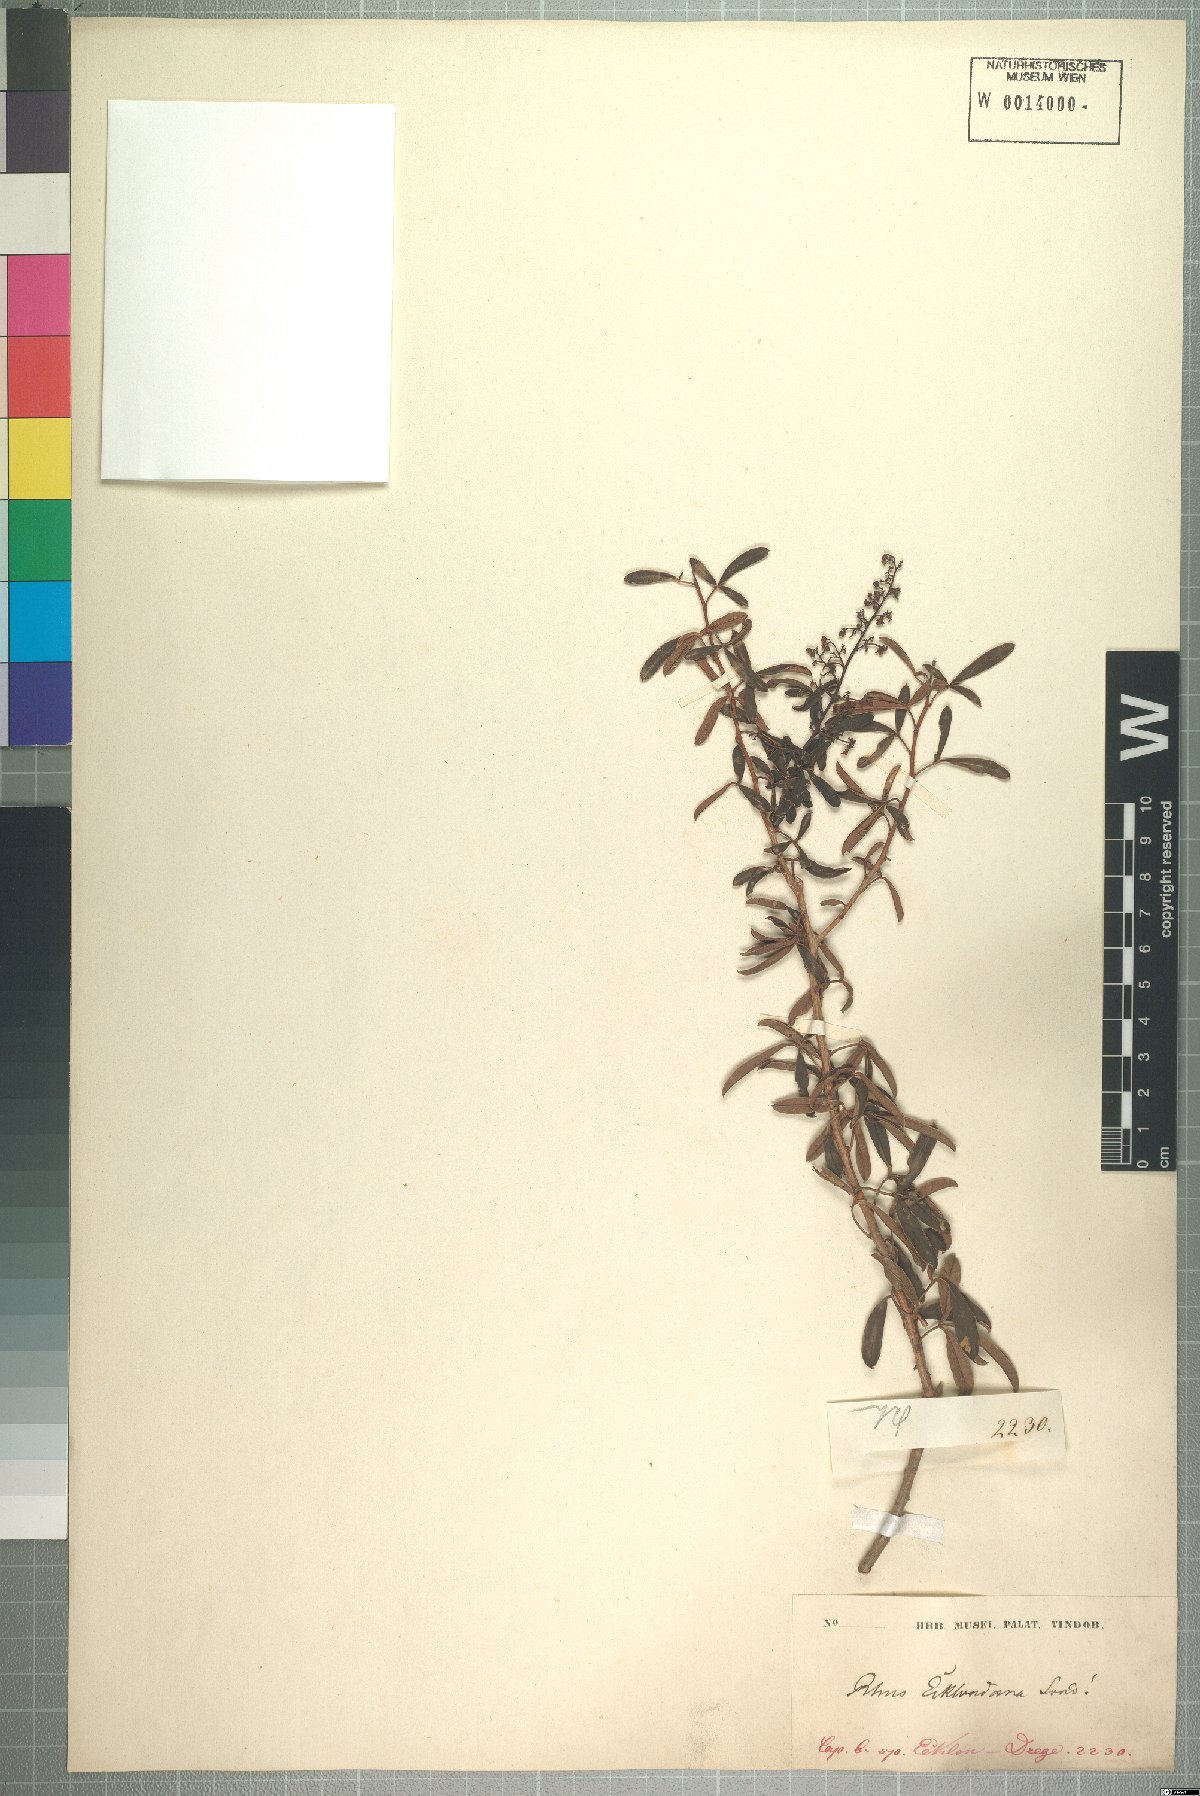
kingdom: Plantae
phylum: Tracheophyta
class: Magnoliopsida
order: Sapindales
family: Anacardiaceae
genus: Searsia
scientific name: Searsia rigida
